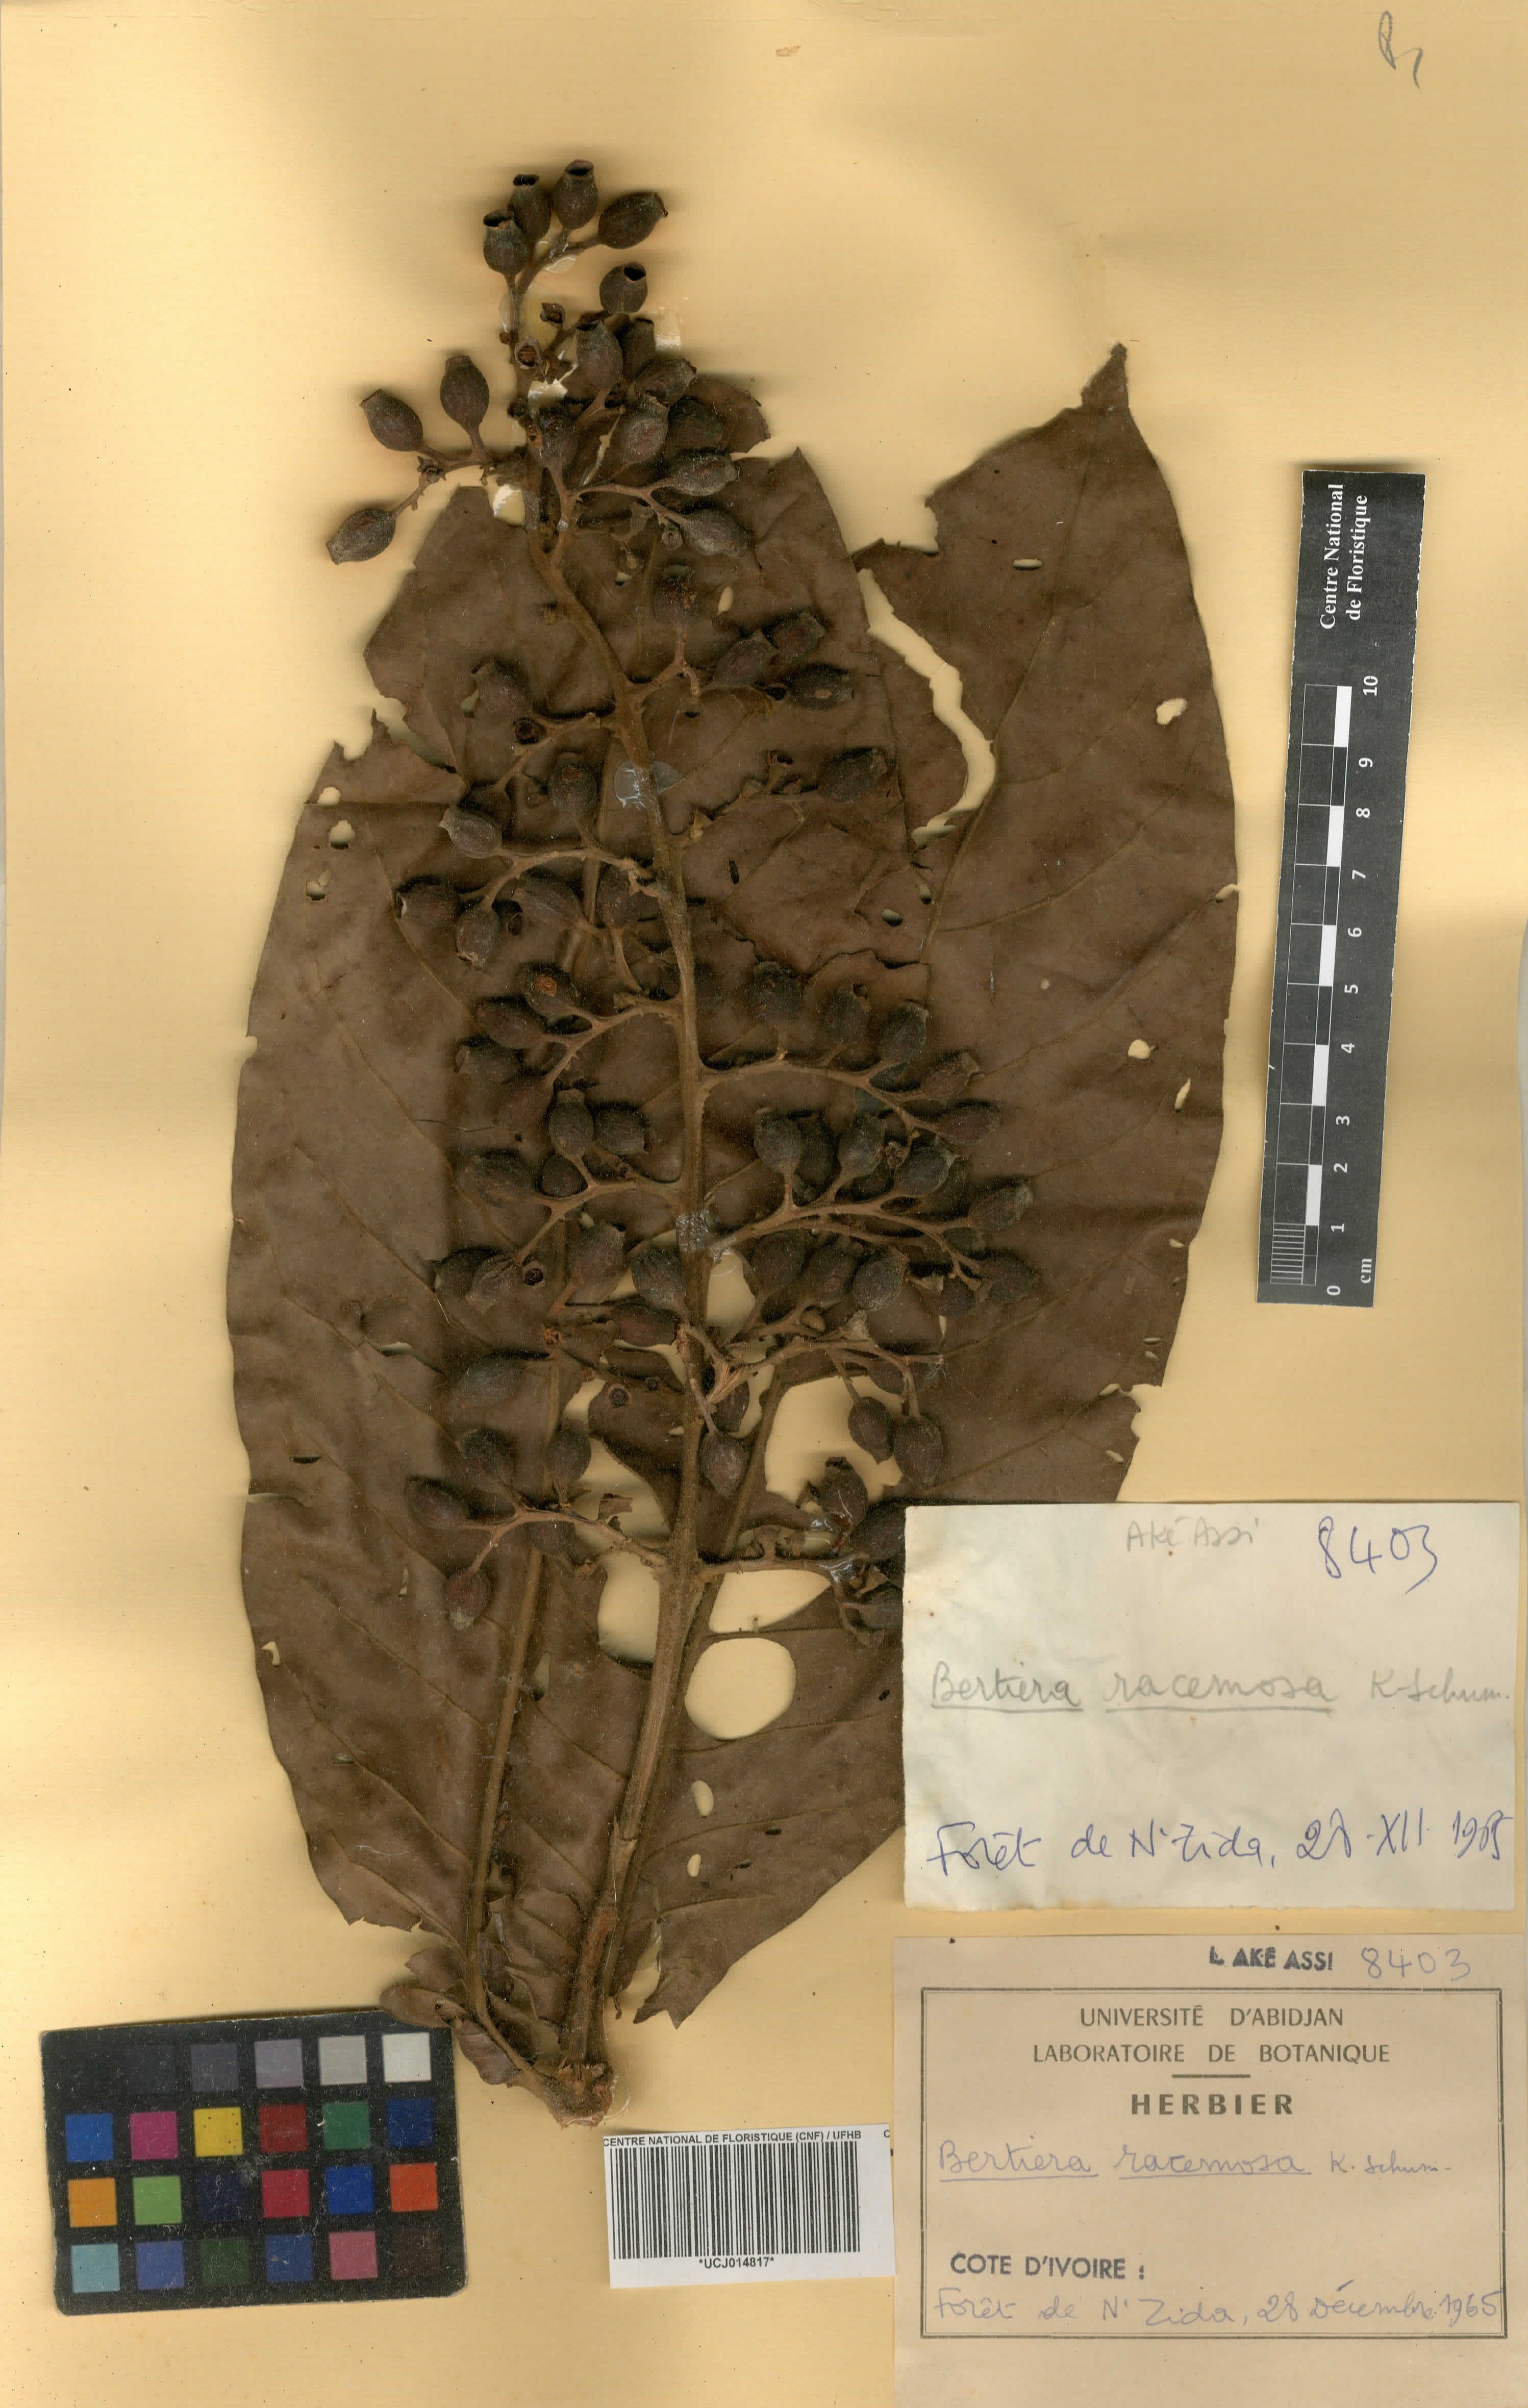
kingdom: Plantae
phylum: Tracheophyta
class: Magnoliopsida
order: Gentianales
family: Rubiaceae
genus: Bertiera
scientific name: Bertiera racemosa
